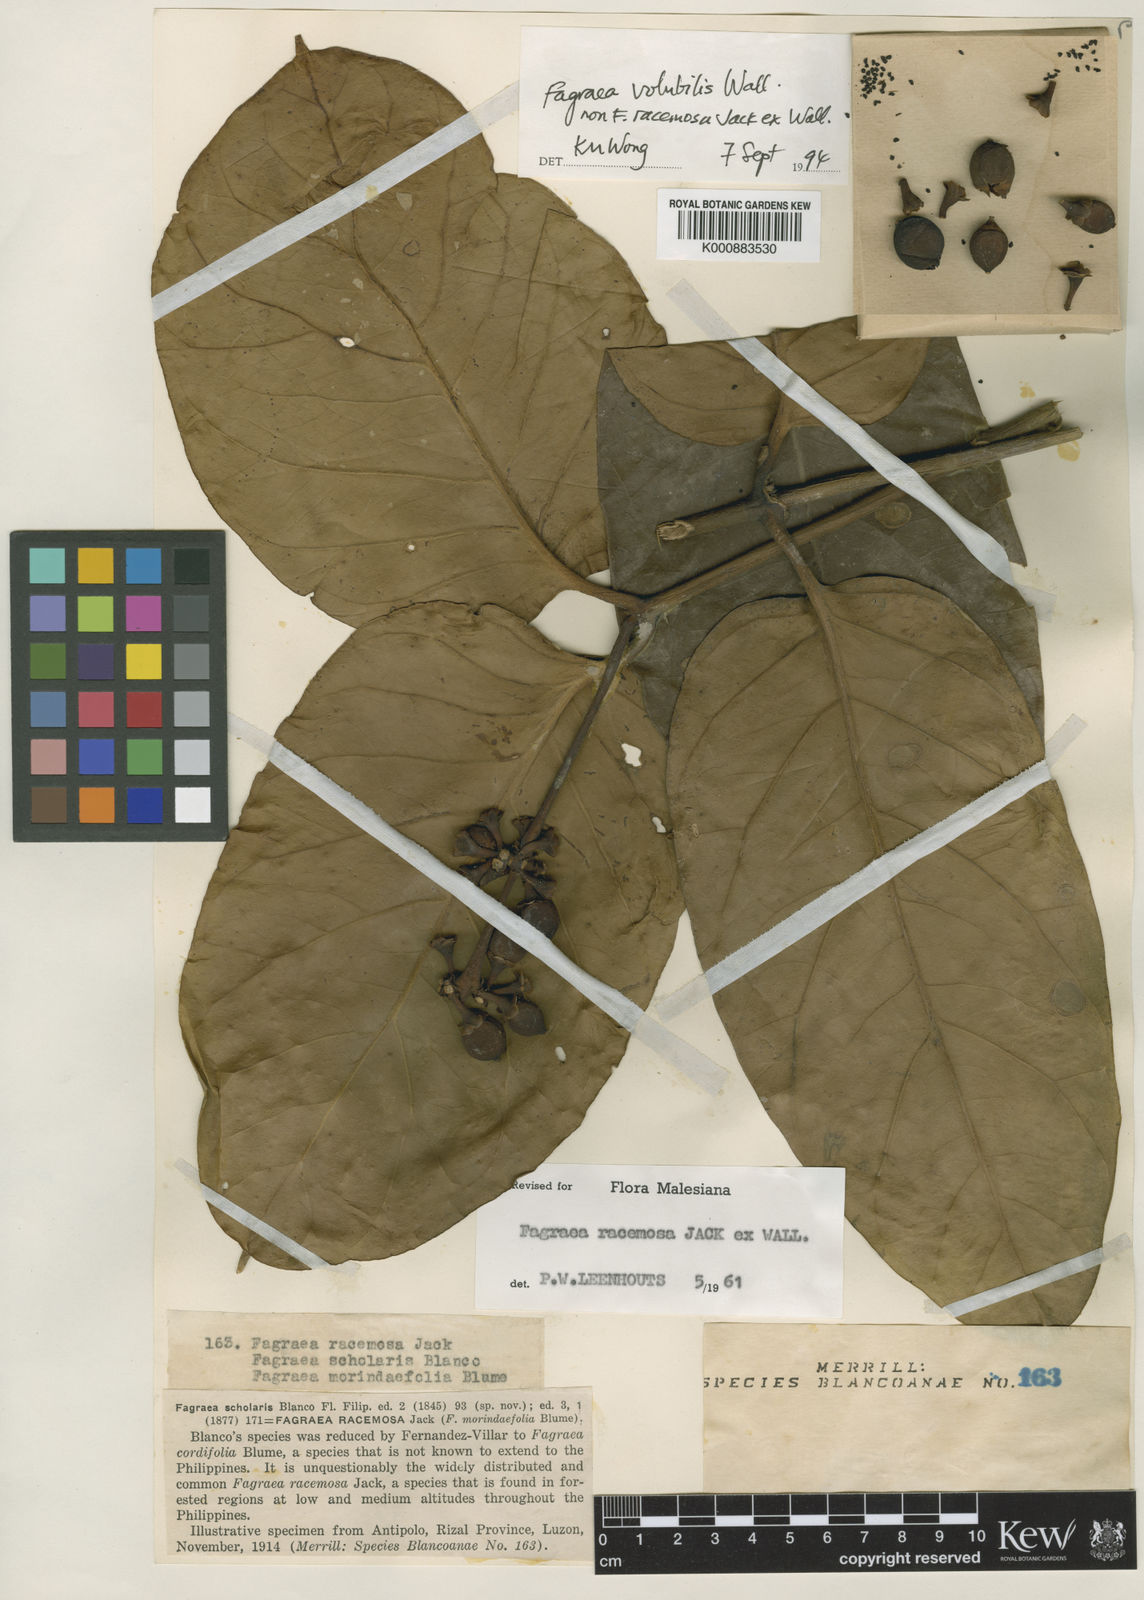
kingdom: Plantae
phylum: Tracheophyta
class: Magnoliopsida
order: Gentianales
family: Gentianaceae
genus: Utania
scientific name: Utania volubilis
